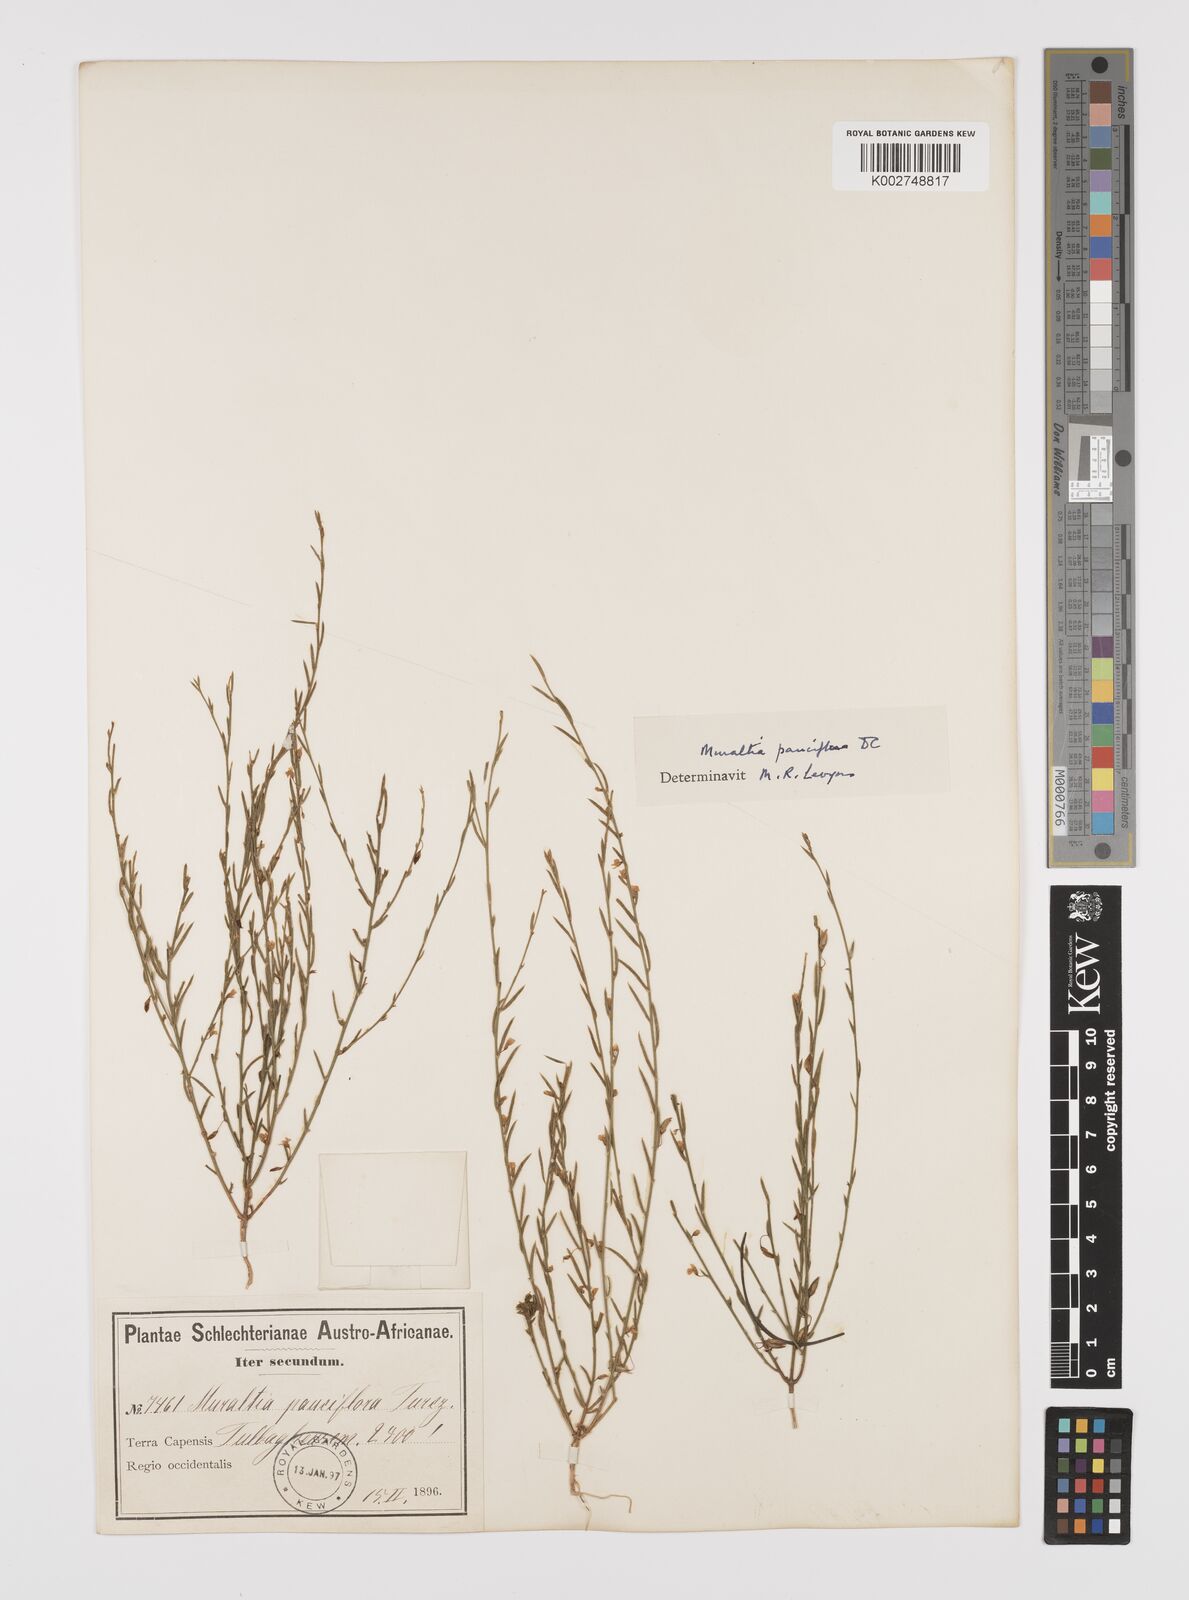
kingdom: Plantae
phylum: Tracheophyta
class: Magnoliopsida
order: Fabales
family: Polygalaceae
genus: Muraltia
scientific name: Muraltia pauciflora
